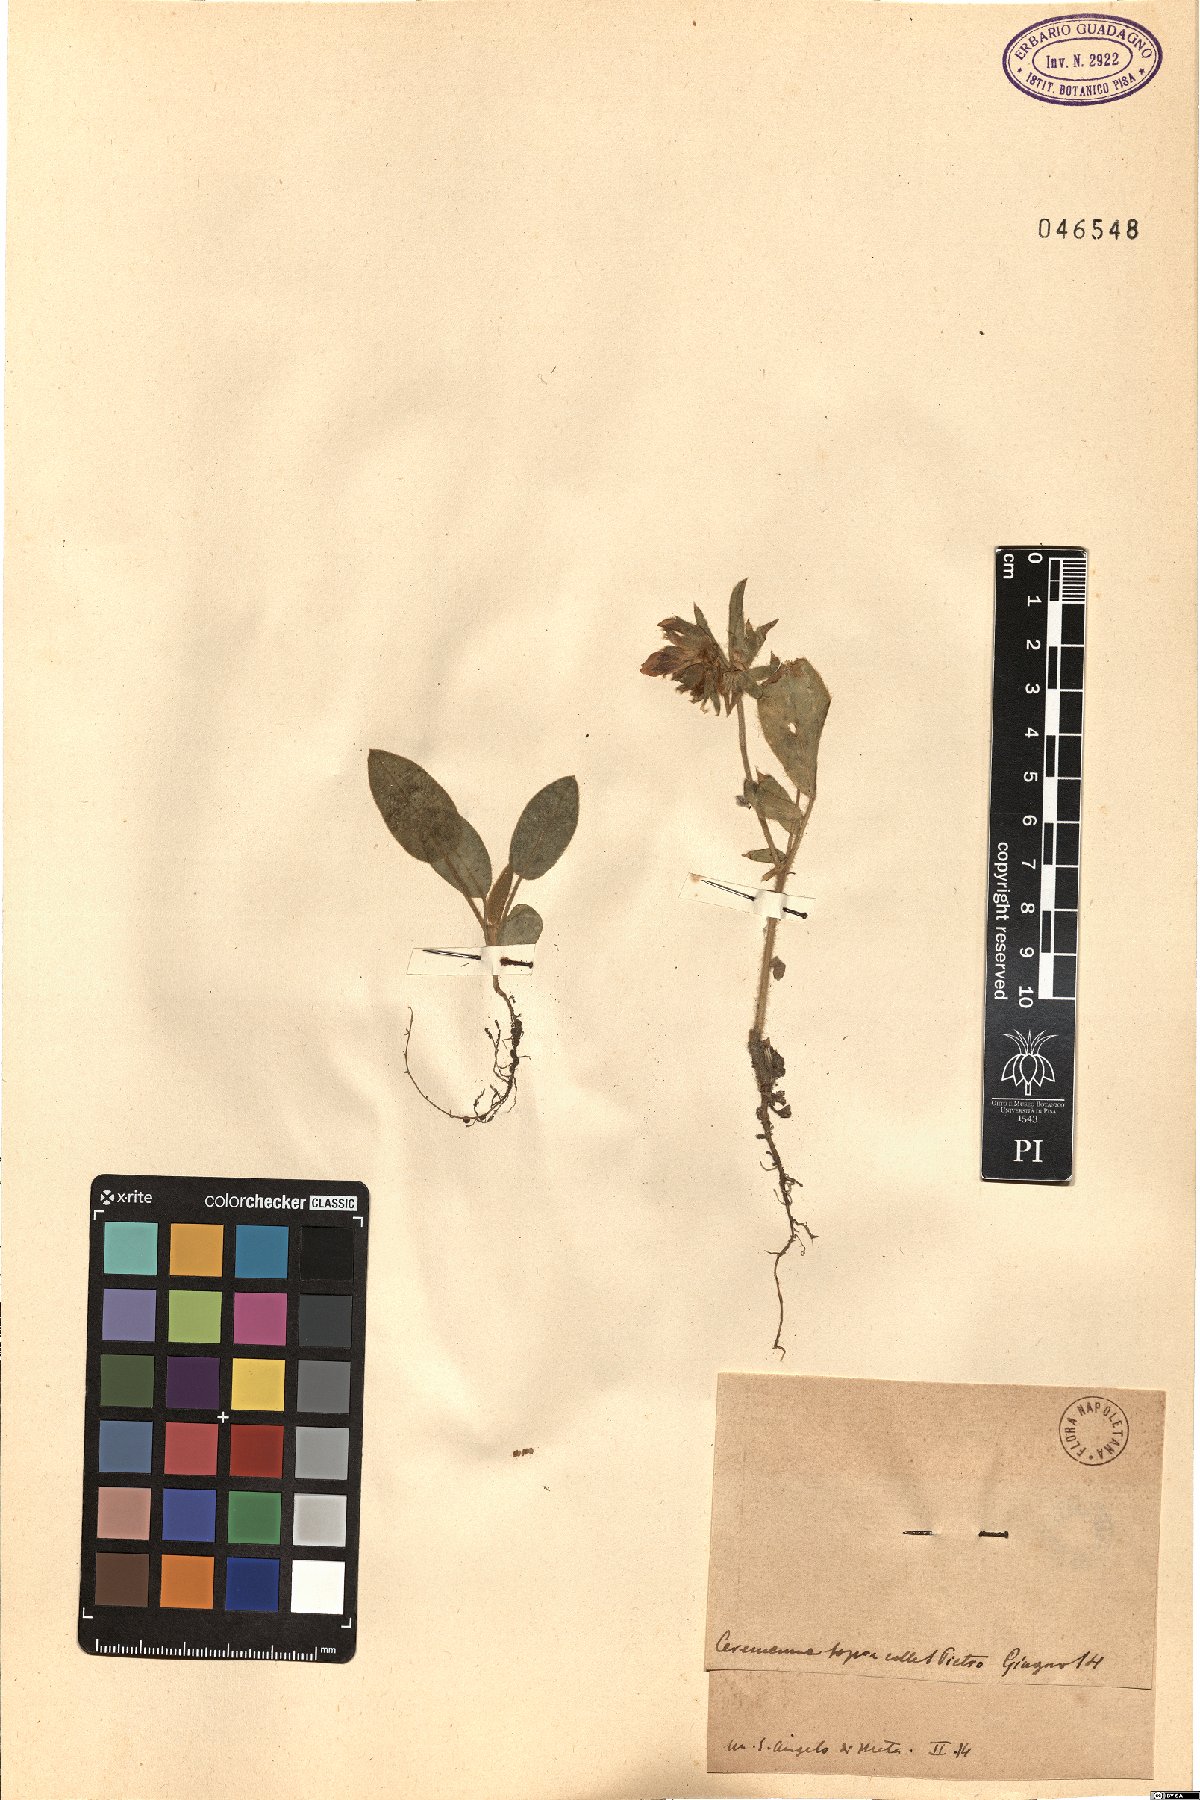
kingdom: Plantae
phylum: Tracheophyta
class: Magnoliopsida
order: Fabales
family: Fabaceae
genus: Anthyllis
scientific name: Anthyllis
